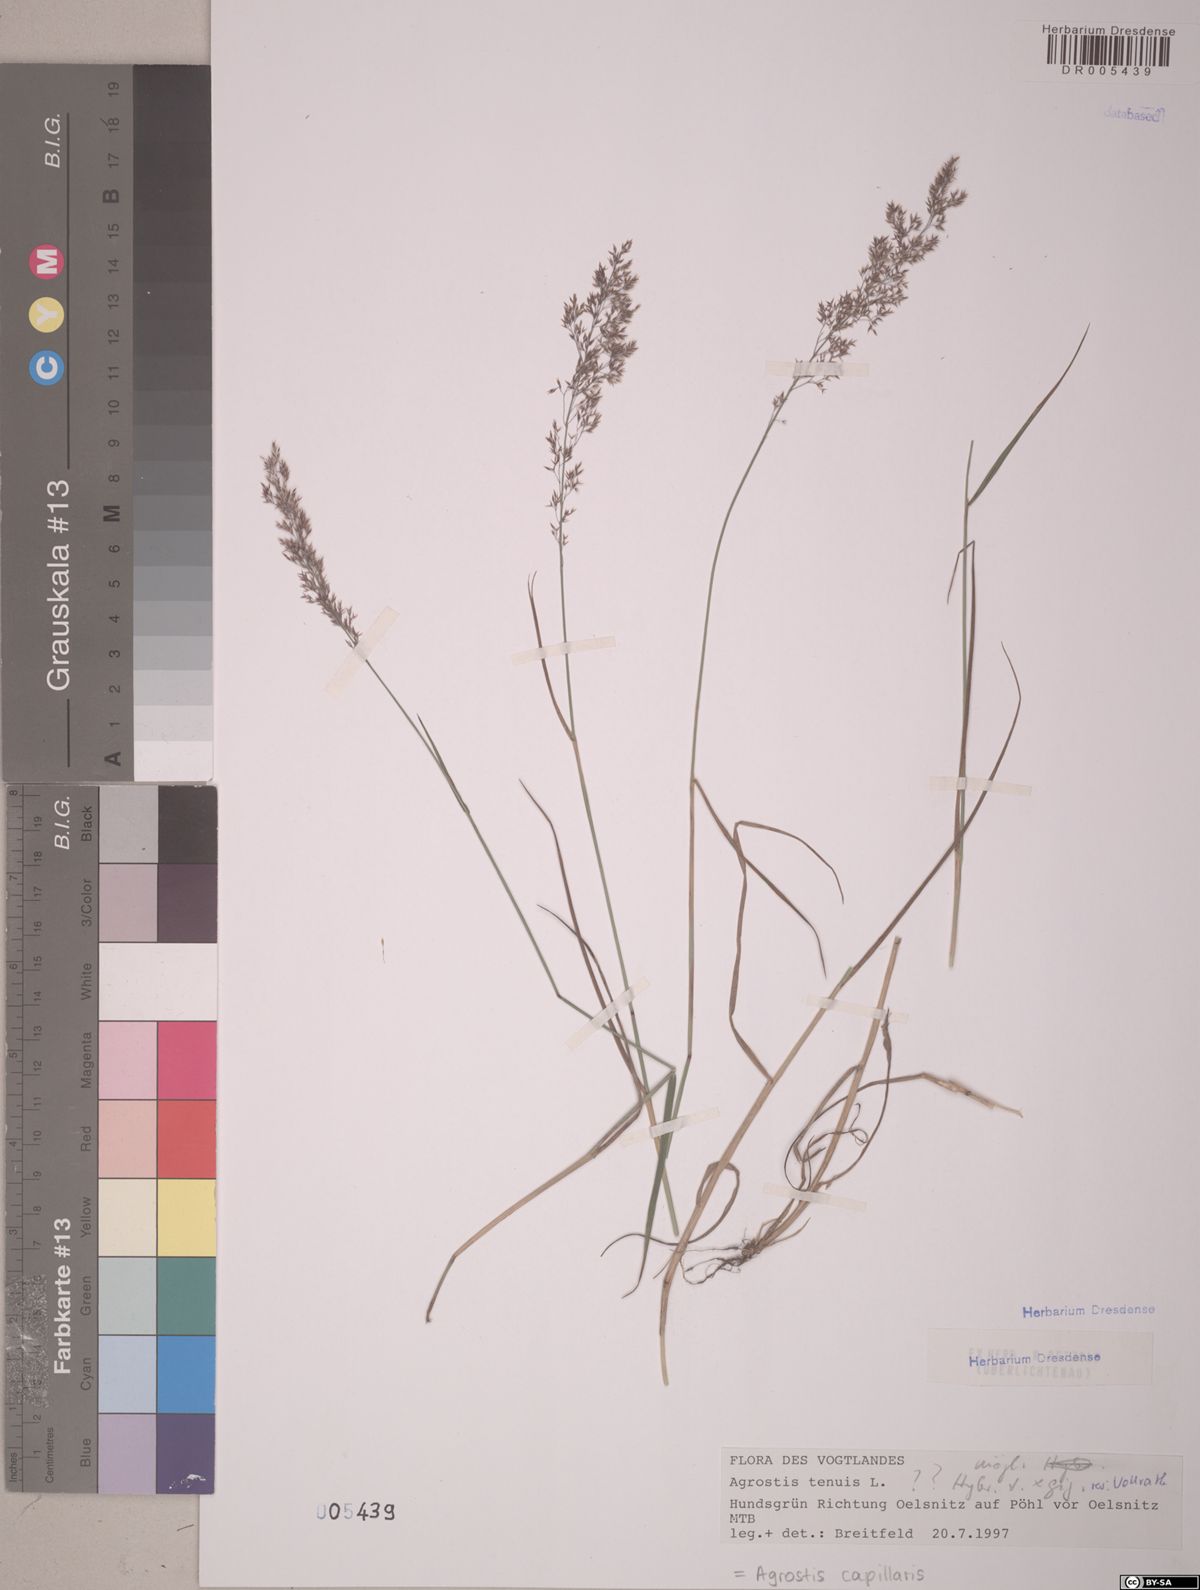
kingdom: Plantae
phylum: Tracheophyta
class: Liliopsida
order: Poales
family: Poaceae
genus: Agrostis
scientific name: Agrostis capillaris
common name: Colonial bentgrass
